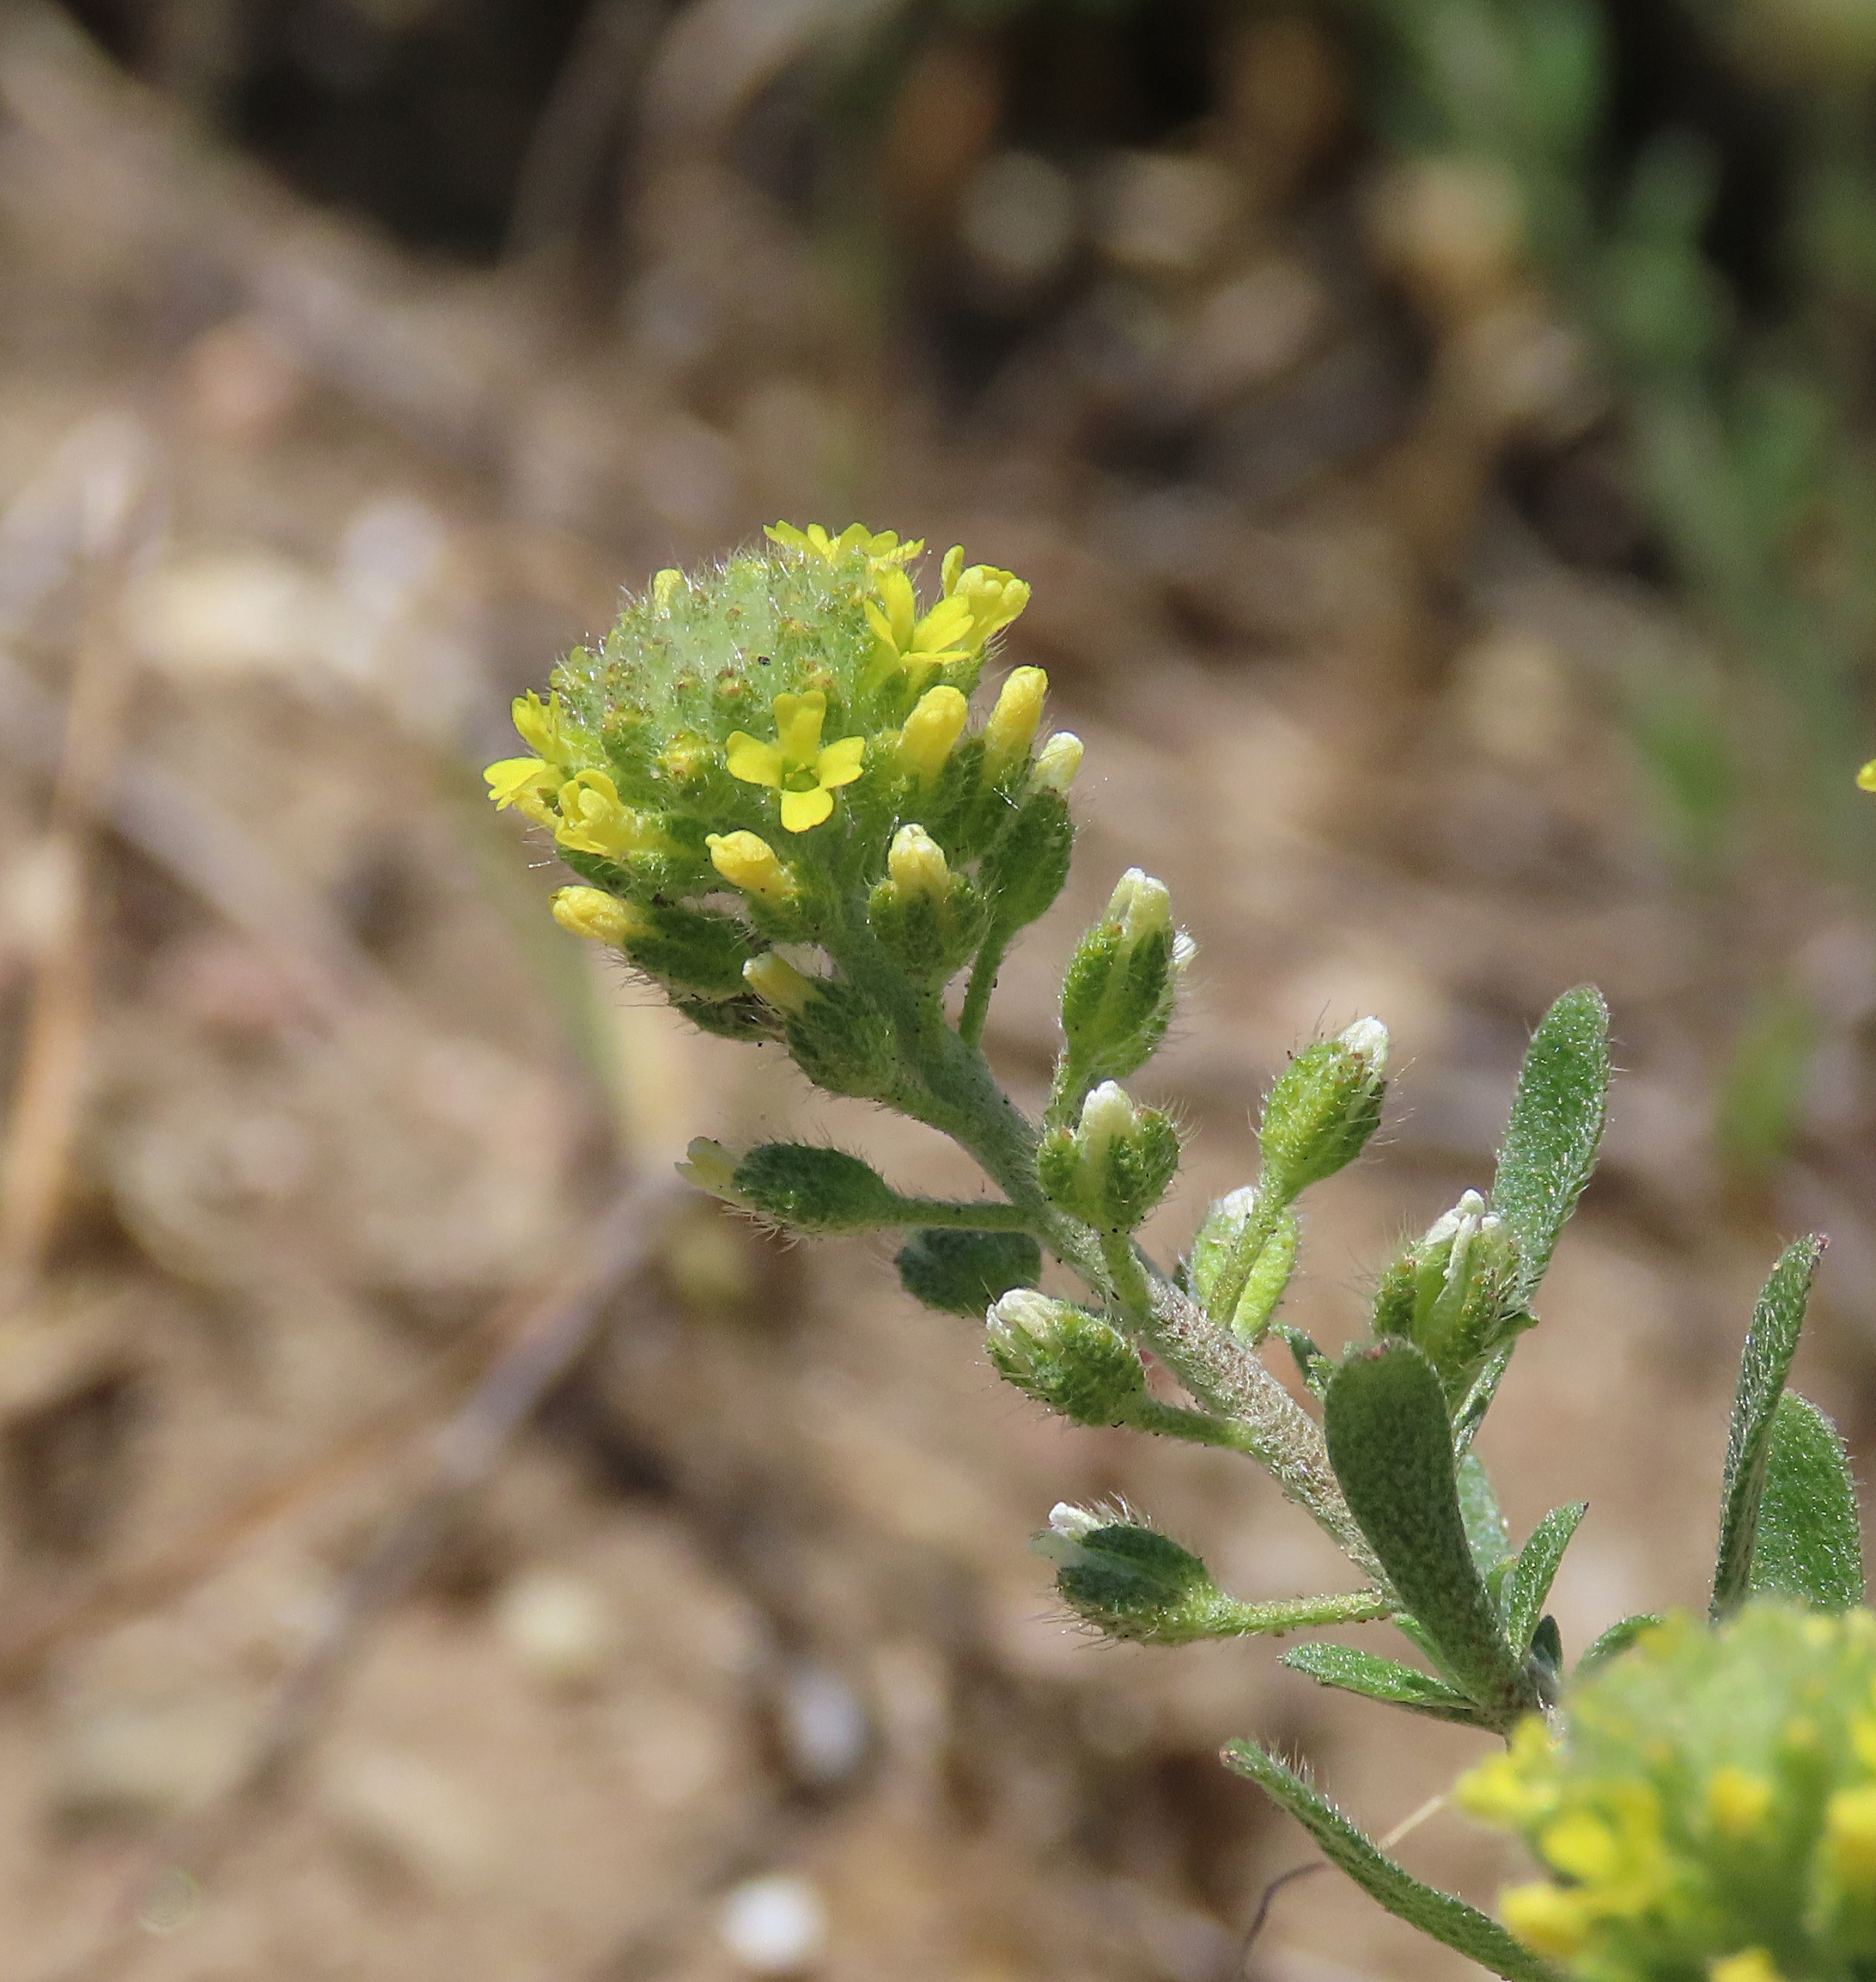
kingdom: Plantae
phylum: Tracheophyta
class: Magnoliopsida
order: Brassicales
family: Brassicaceae
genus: Alyssum
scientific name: Alyssum alyssoides
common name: Grådodder
